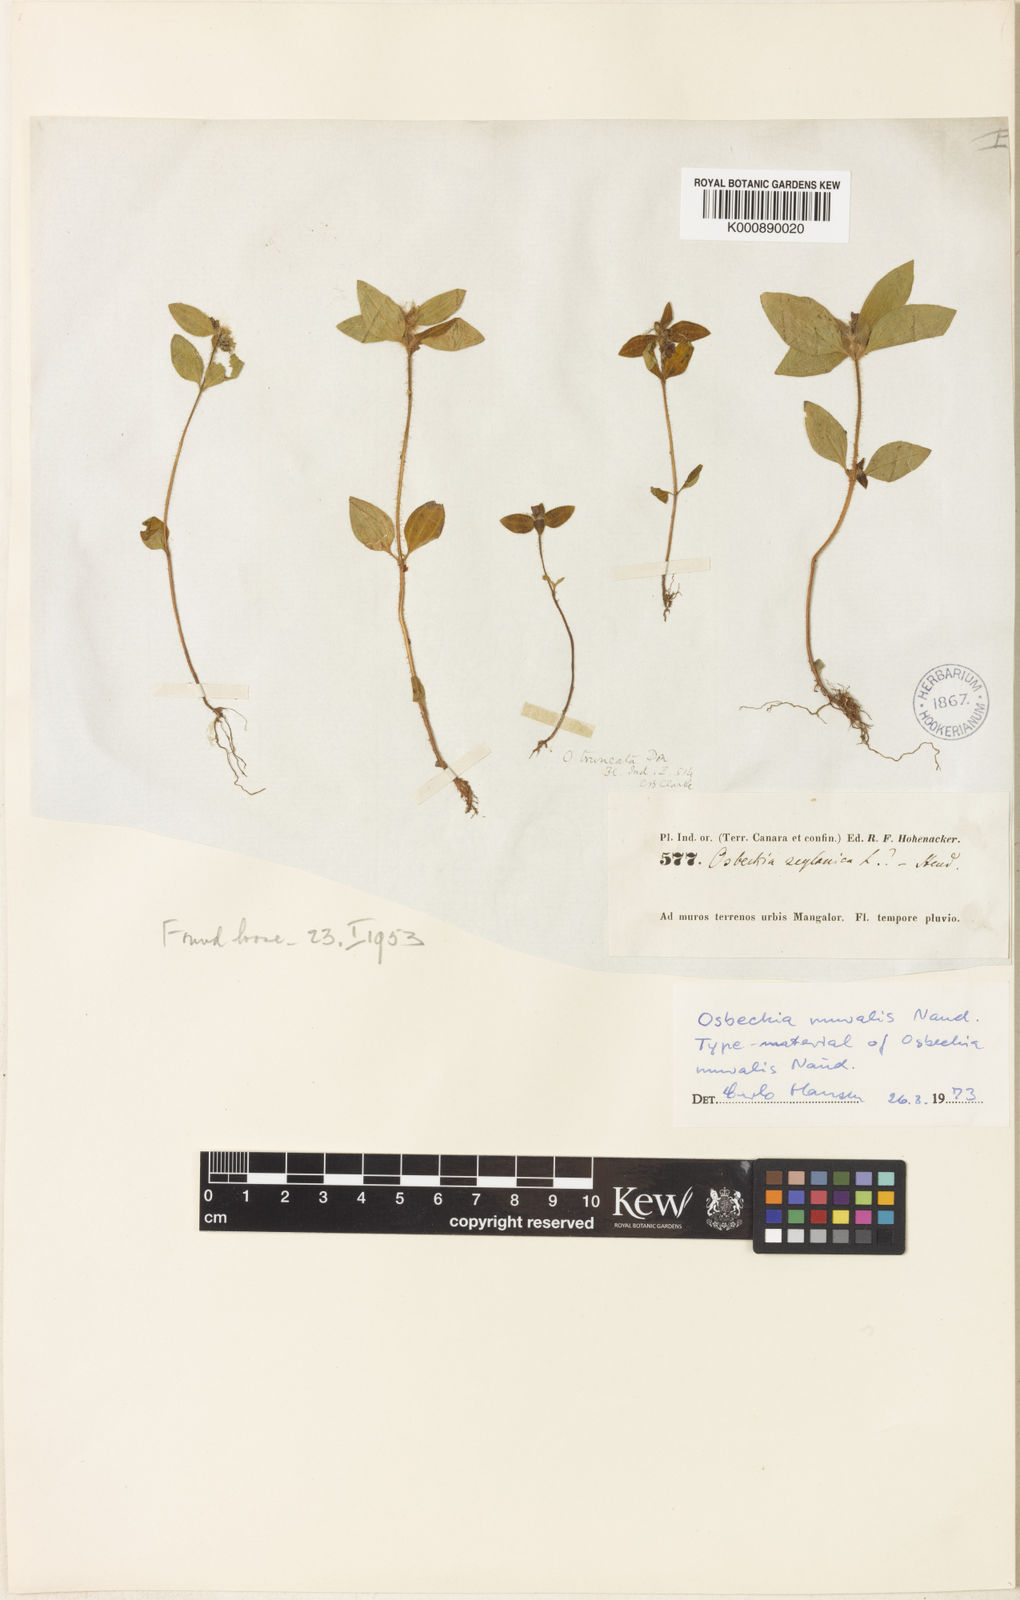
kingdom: Plantae
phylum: Tracheophyta
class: Magnoliopsida
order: Myrtales
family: Melastomataceae
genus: Osbeckia
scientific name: Osbeckia muralis
